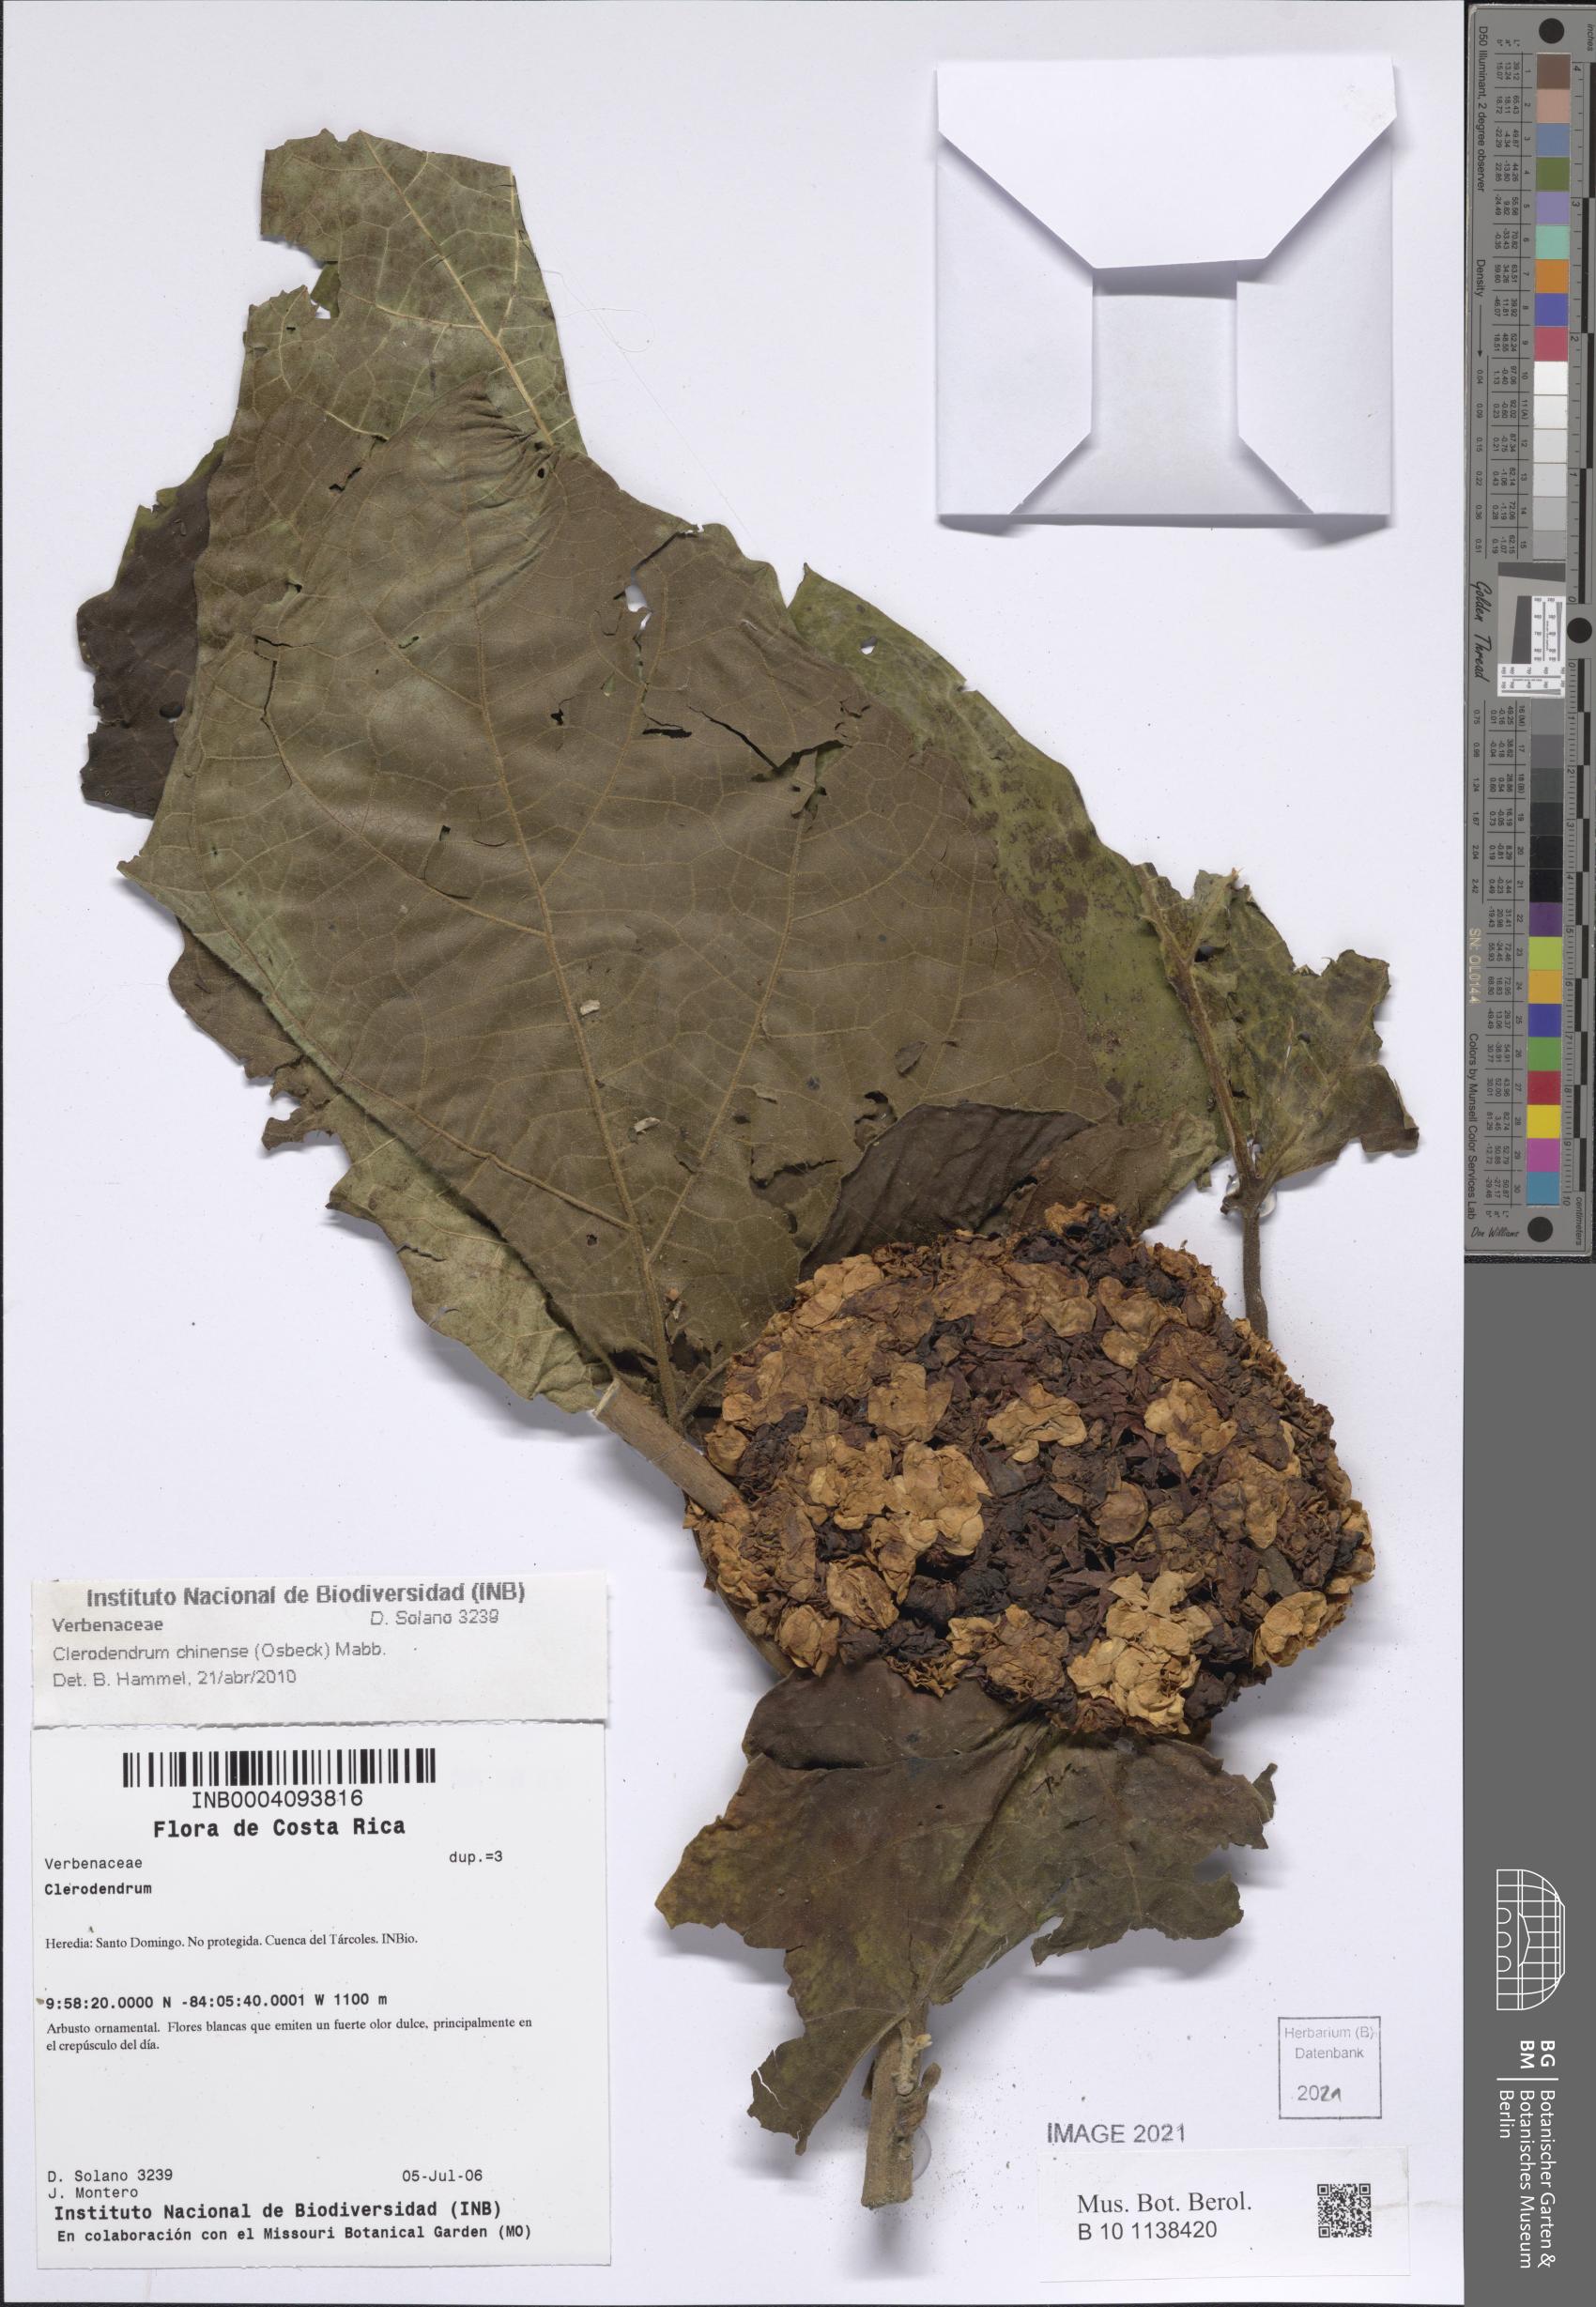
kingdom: Plantae
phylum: Tracheophyta
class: Magnoliopsida
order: Lamiales
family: Lamiaceae
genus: Clerodendrum
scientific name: Clerodendrum chinense
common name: Stickbush
